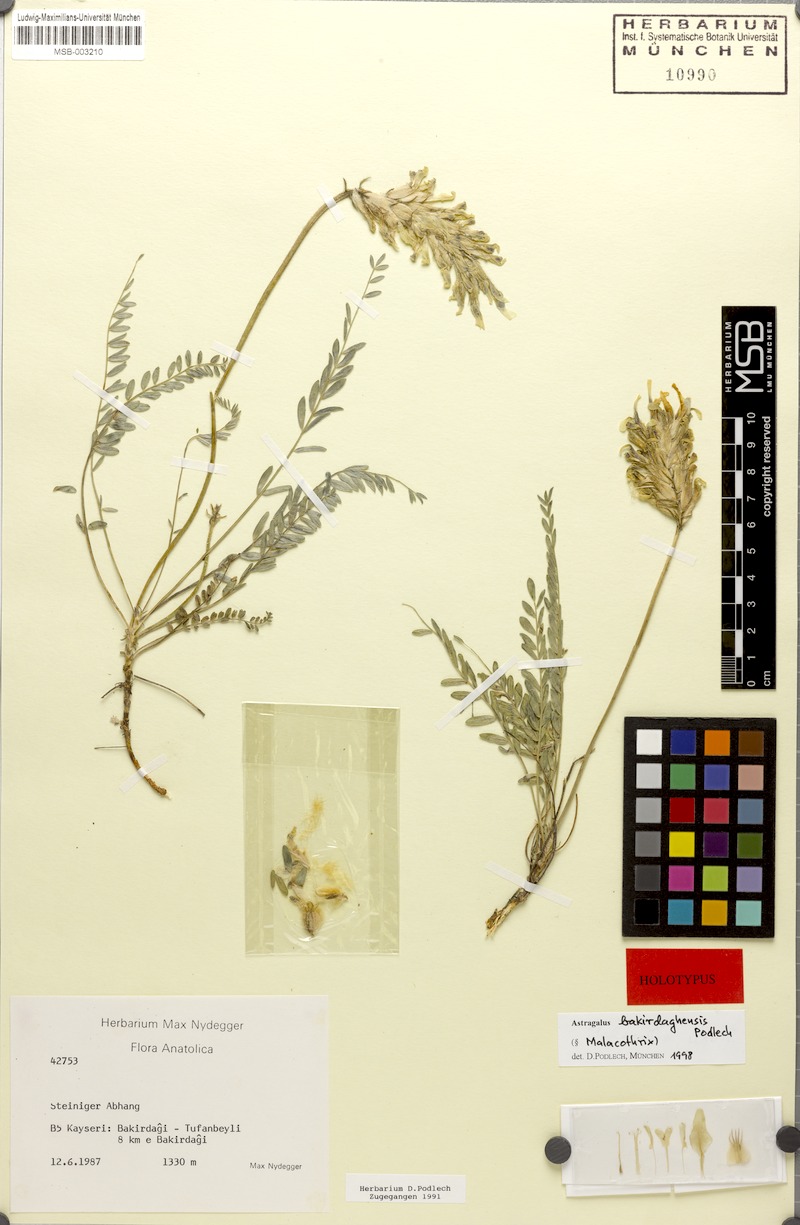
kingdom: Plantae
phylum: Tracheophyta
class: Magnoliopsida
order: Fabales
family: Fabaceae
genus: Astragalus
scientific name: Astragalus bakirdaghensis
